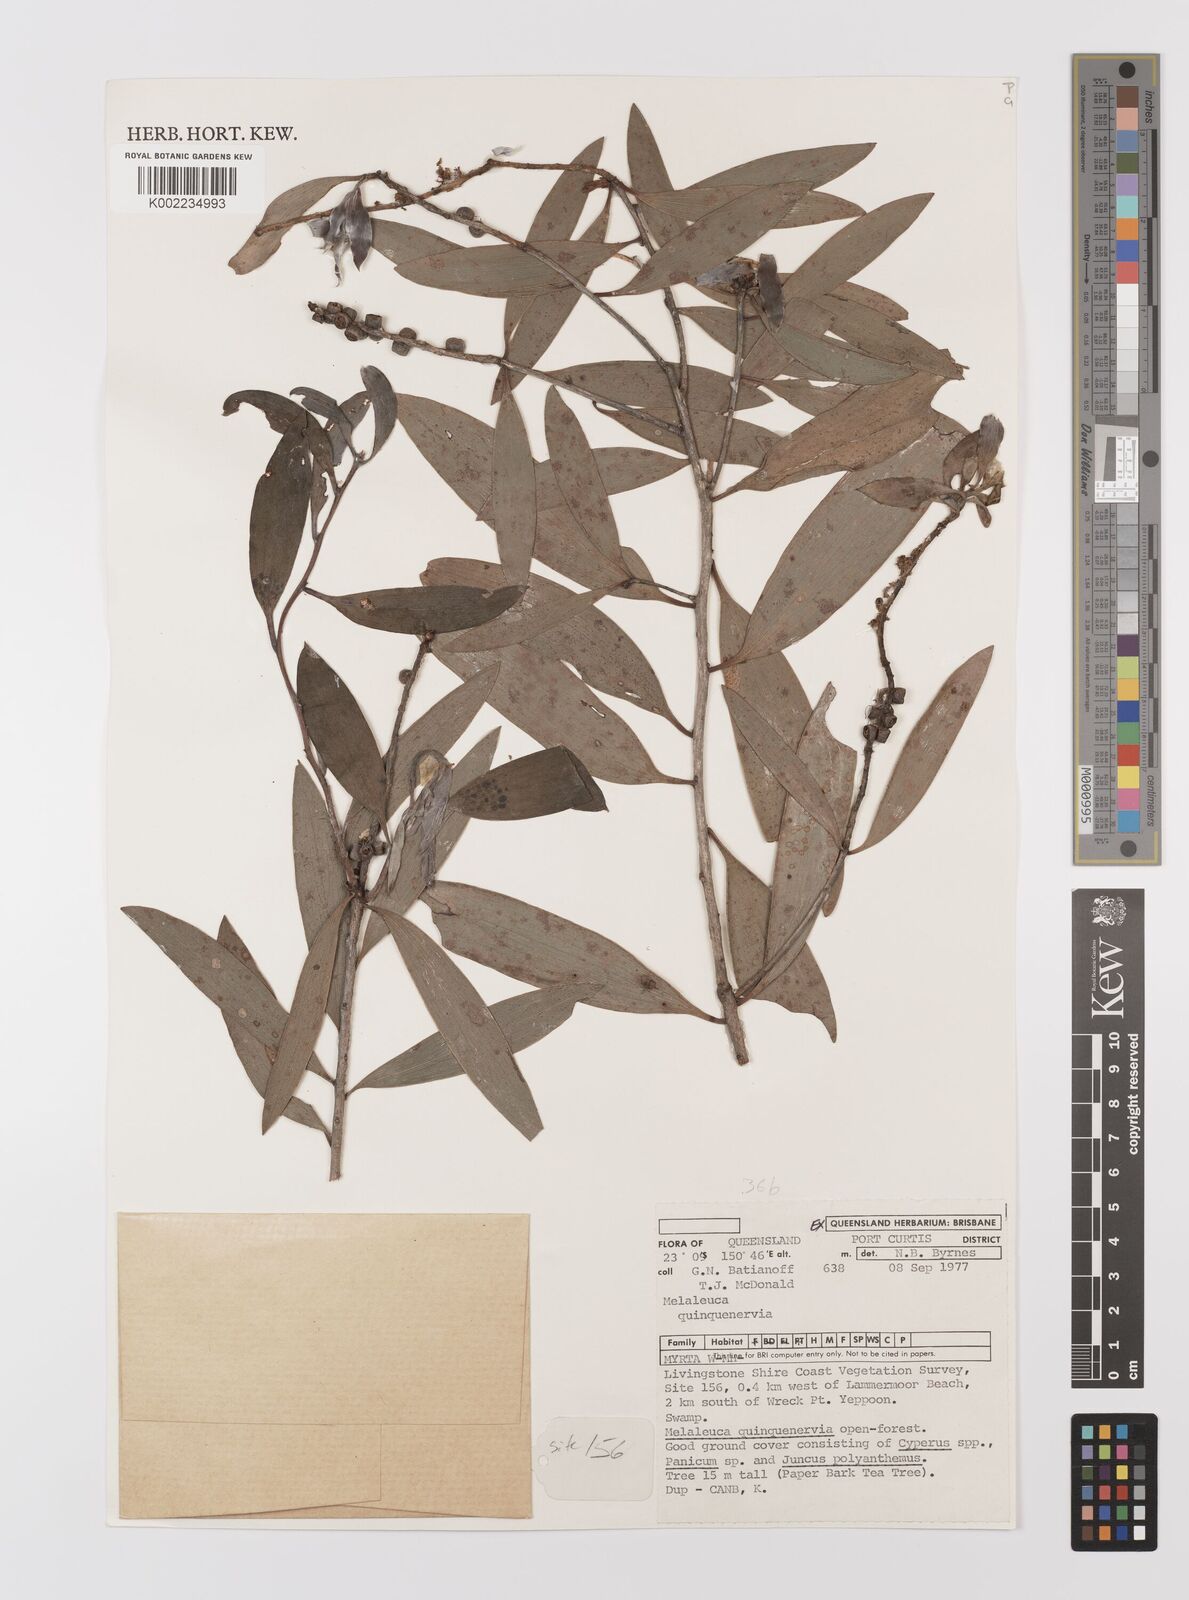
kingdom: Plantae
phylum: Tracheophyta
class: Magnoliopsida
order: Myrtales
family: Myrtaceae
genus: Melaleuca
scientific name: Melaleuca quinquenervia
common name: Punktree
